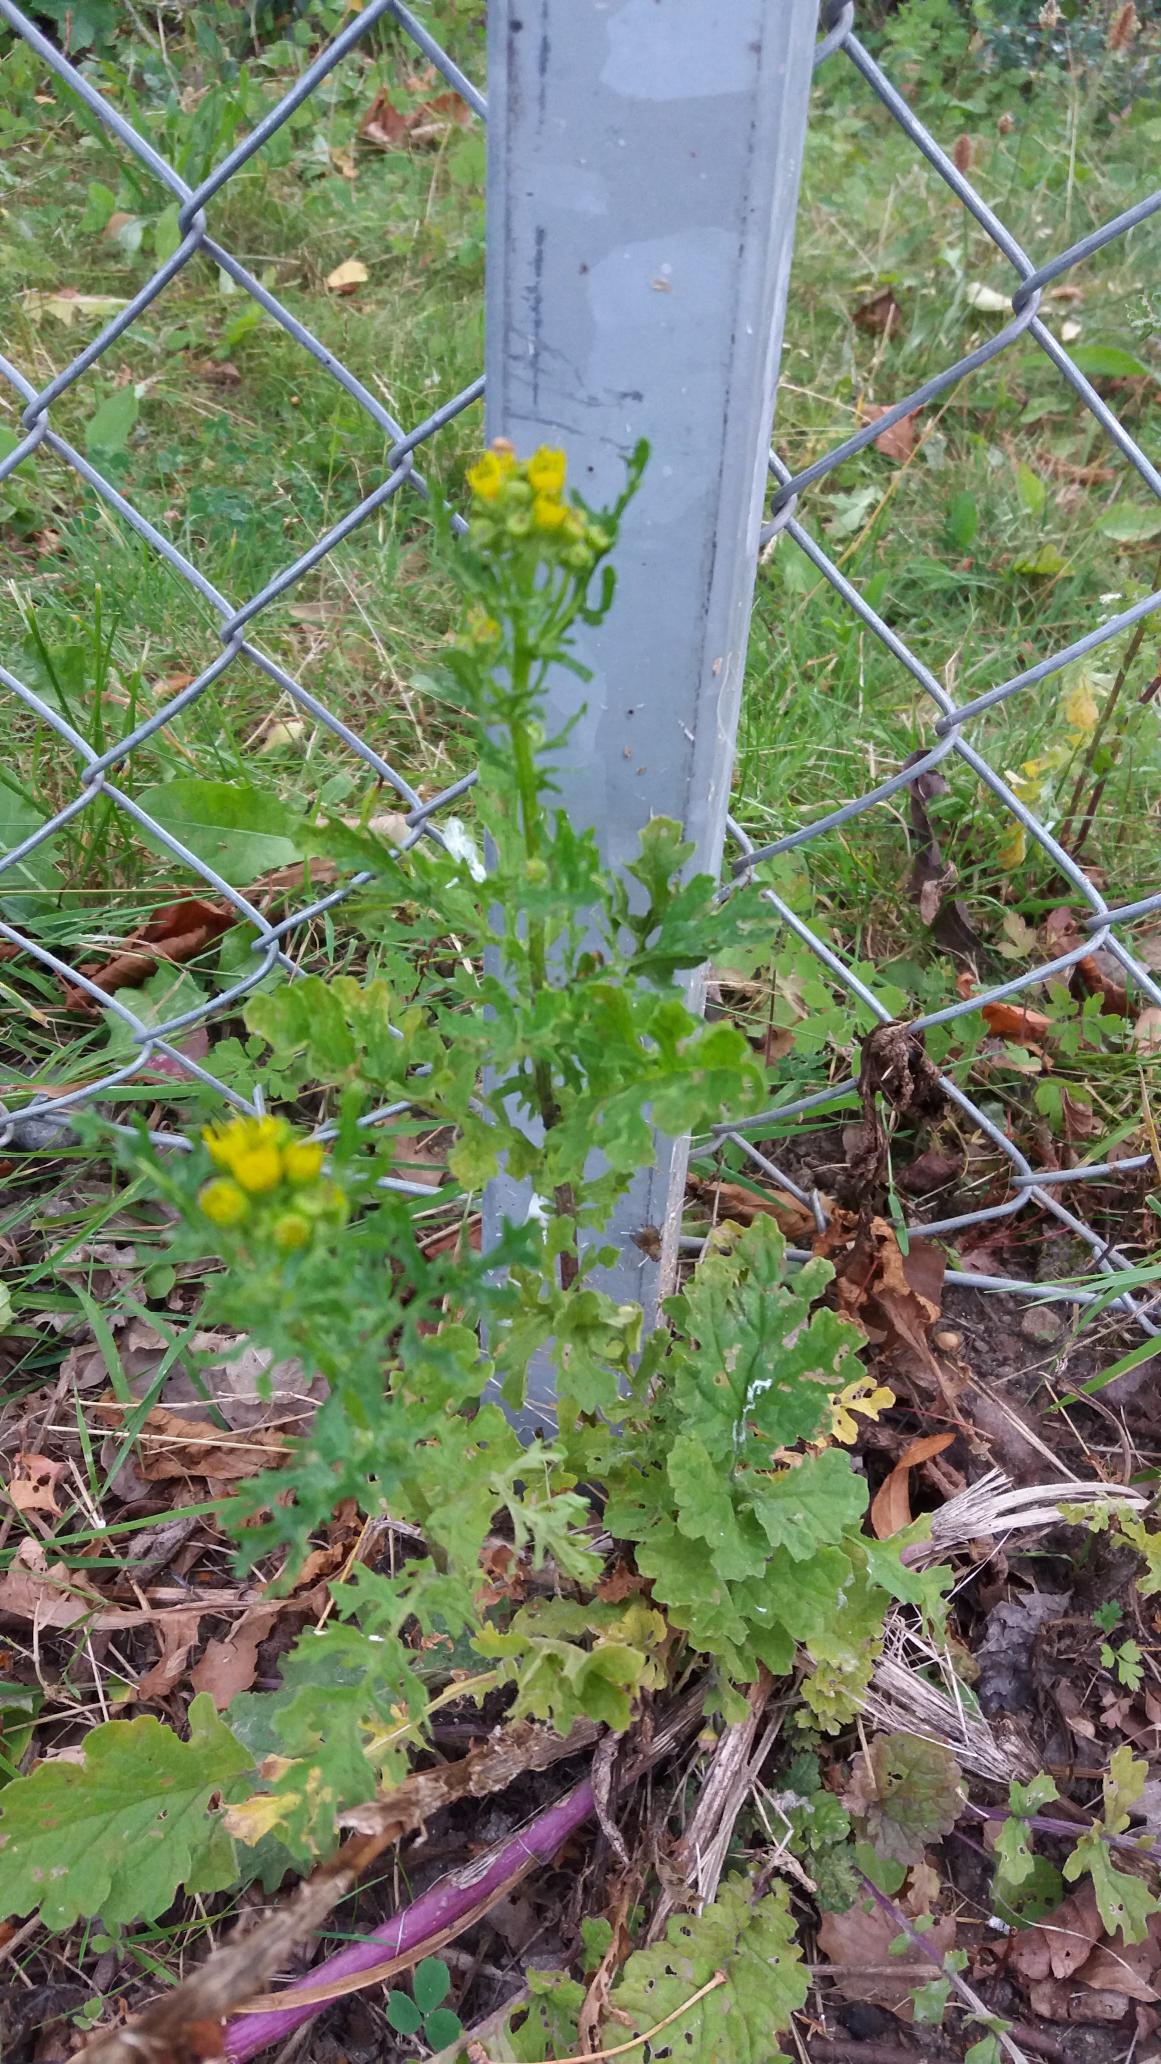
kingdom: Plantae
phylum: Tracheophyta
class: Magnoliopsida
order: Asterales
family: Asteraceae
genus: Jacobaea
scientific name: Jacobaea vulgaris
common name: Eng-brandbæger
